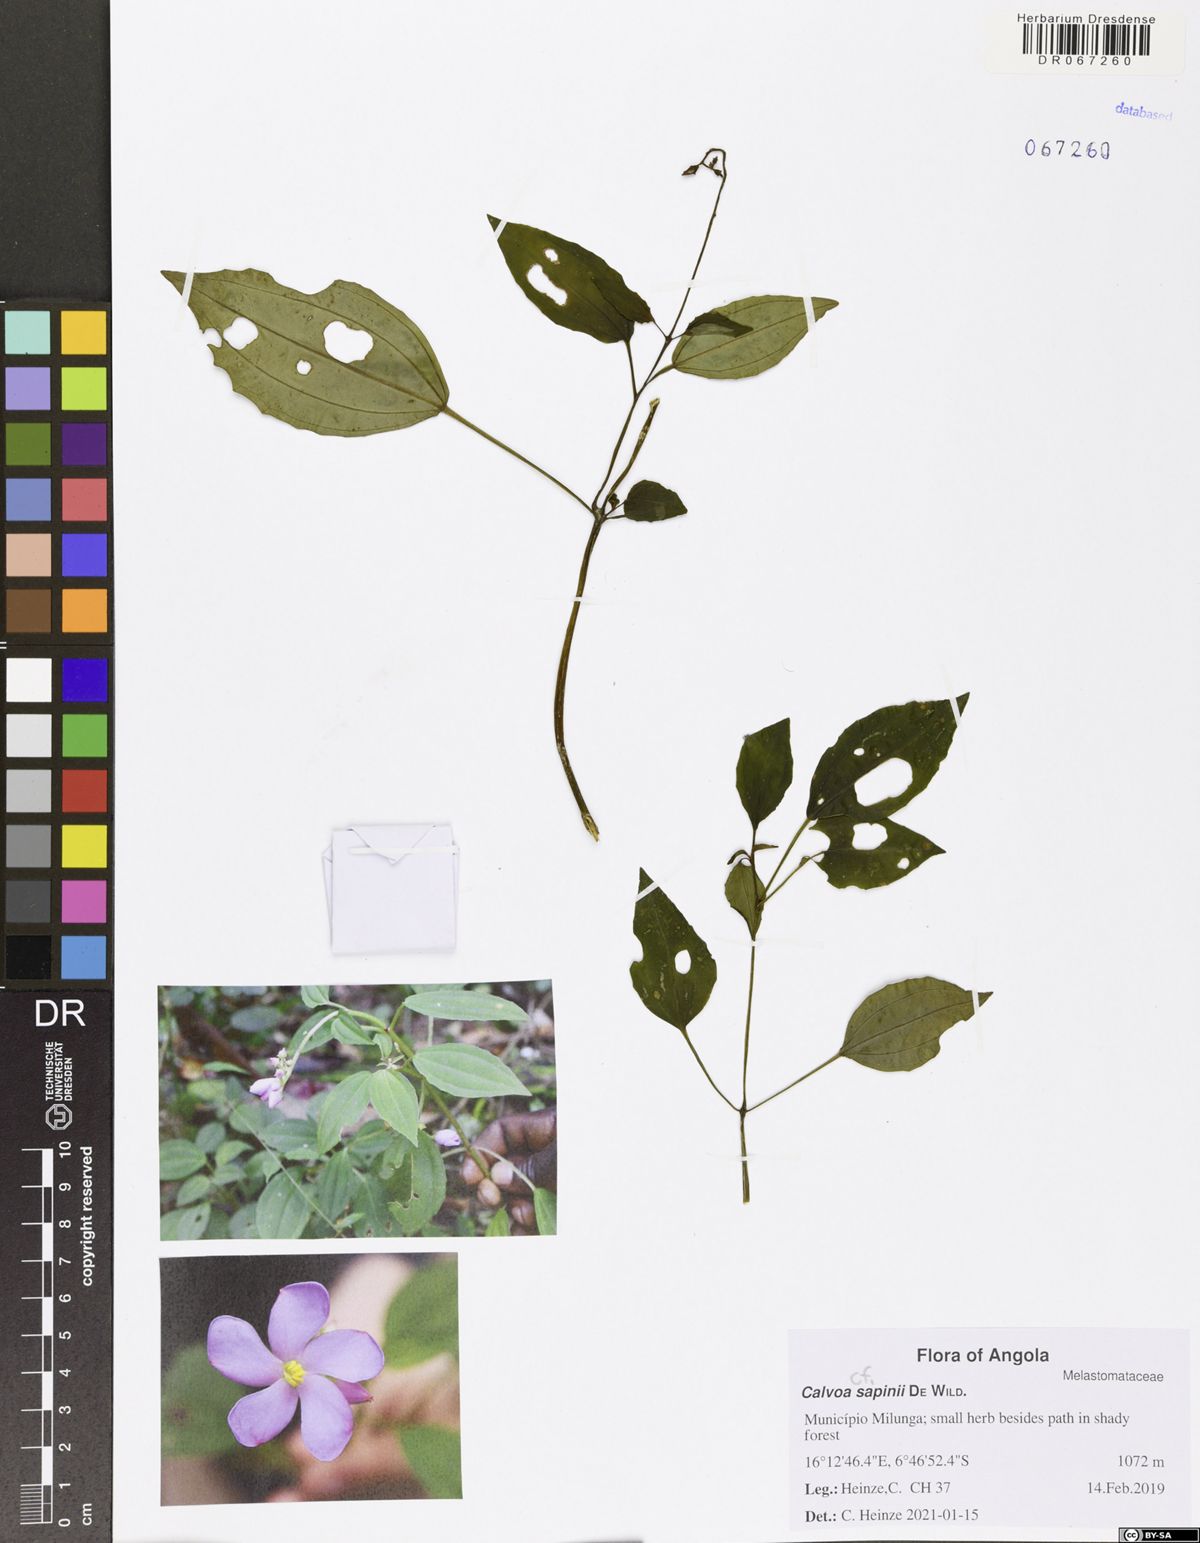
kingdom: Plantae
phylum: Tracheophyta
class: Magnoliopsida
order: Myrtales
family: Melastomataceae
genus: Calvoa
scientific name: Calvoa monticola
